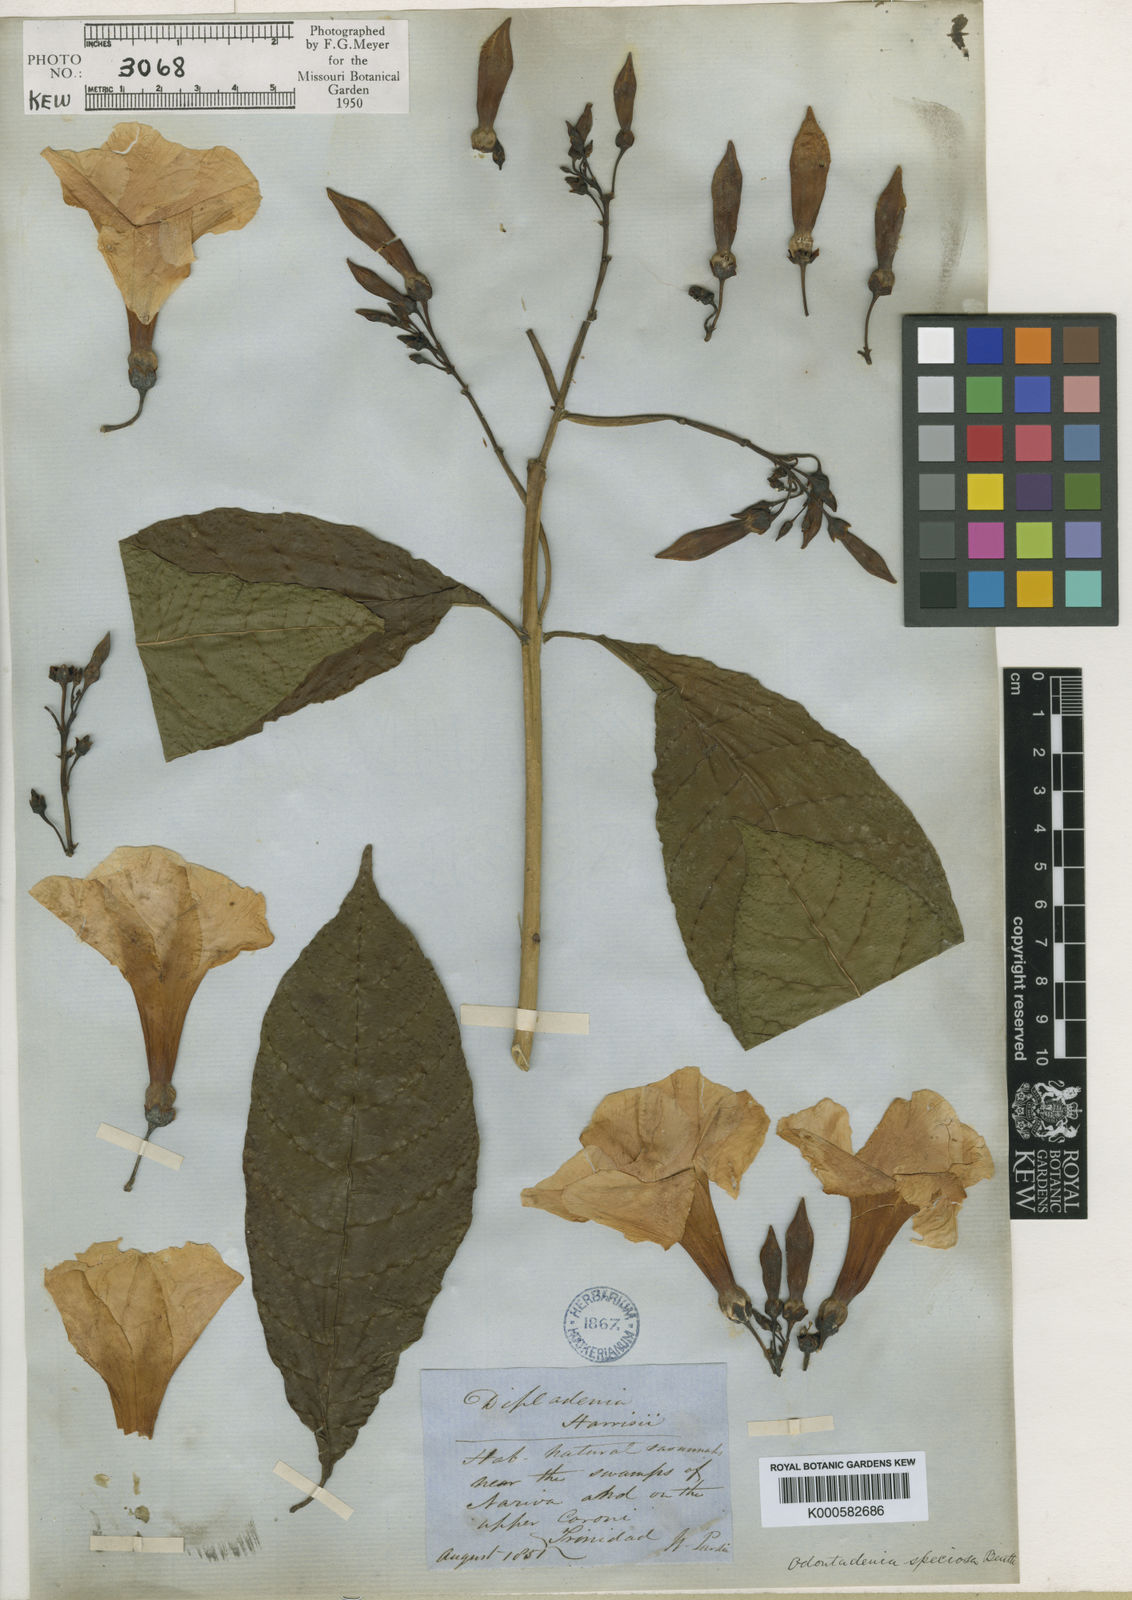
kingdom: Plantae
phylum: Tracheophyta
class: Magnoliopsida
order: Gentianales
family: Apocynaceae
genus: Odontadenia
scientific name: Odontadenia semidigyna
